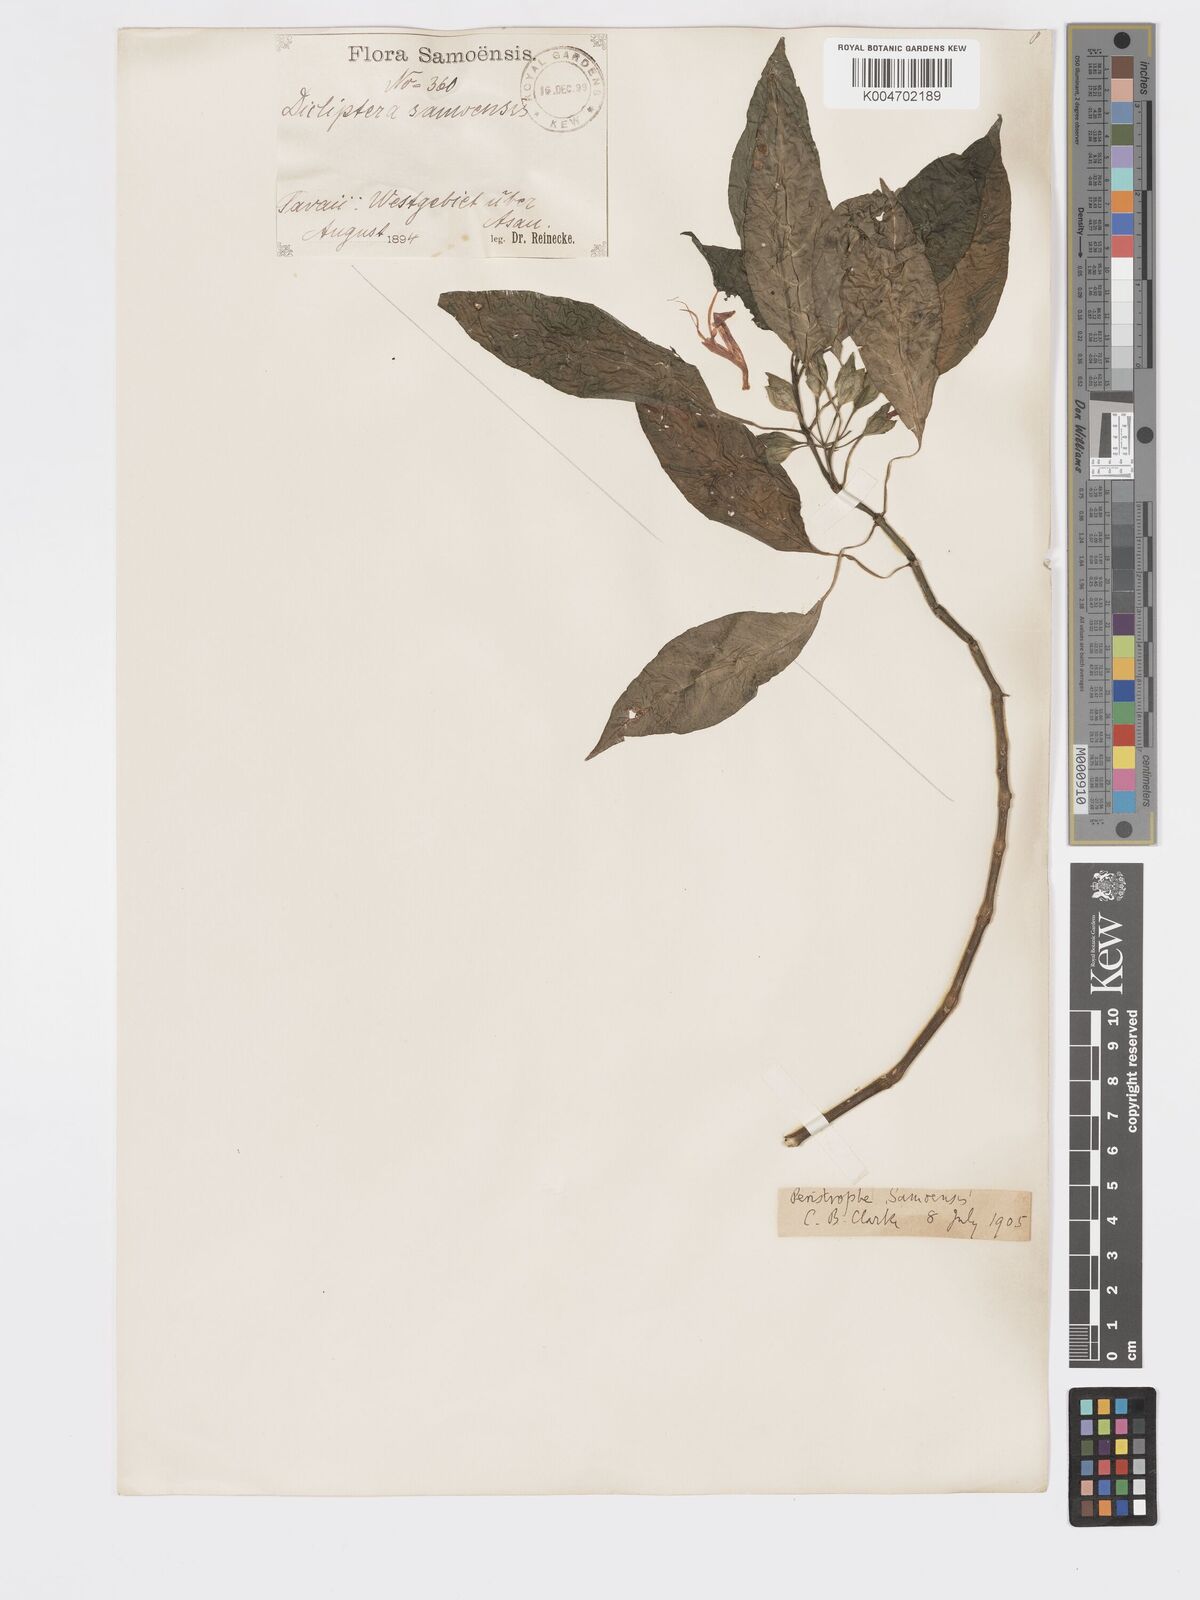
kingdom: Plantae
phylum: Tracheophyta
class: Magnoliopsida
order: Lamiales
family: Acanthaceae
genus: Dicliptera
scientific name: Dicliptera samoensis
